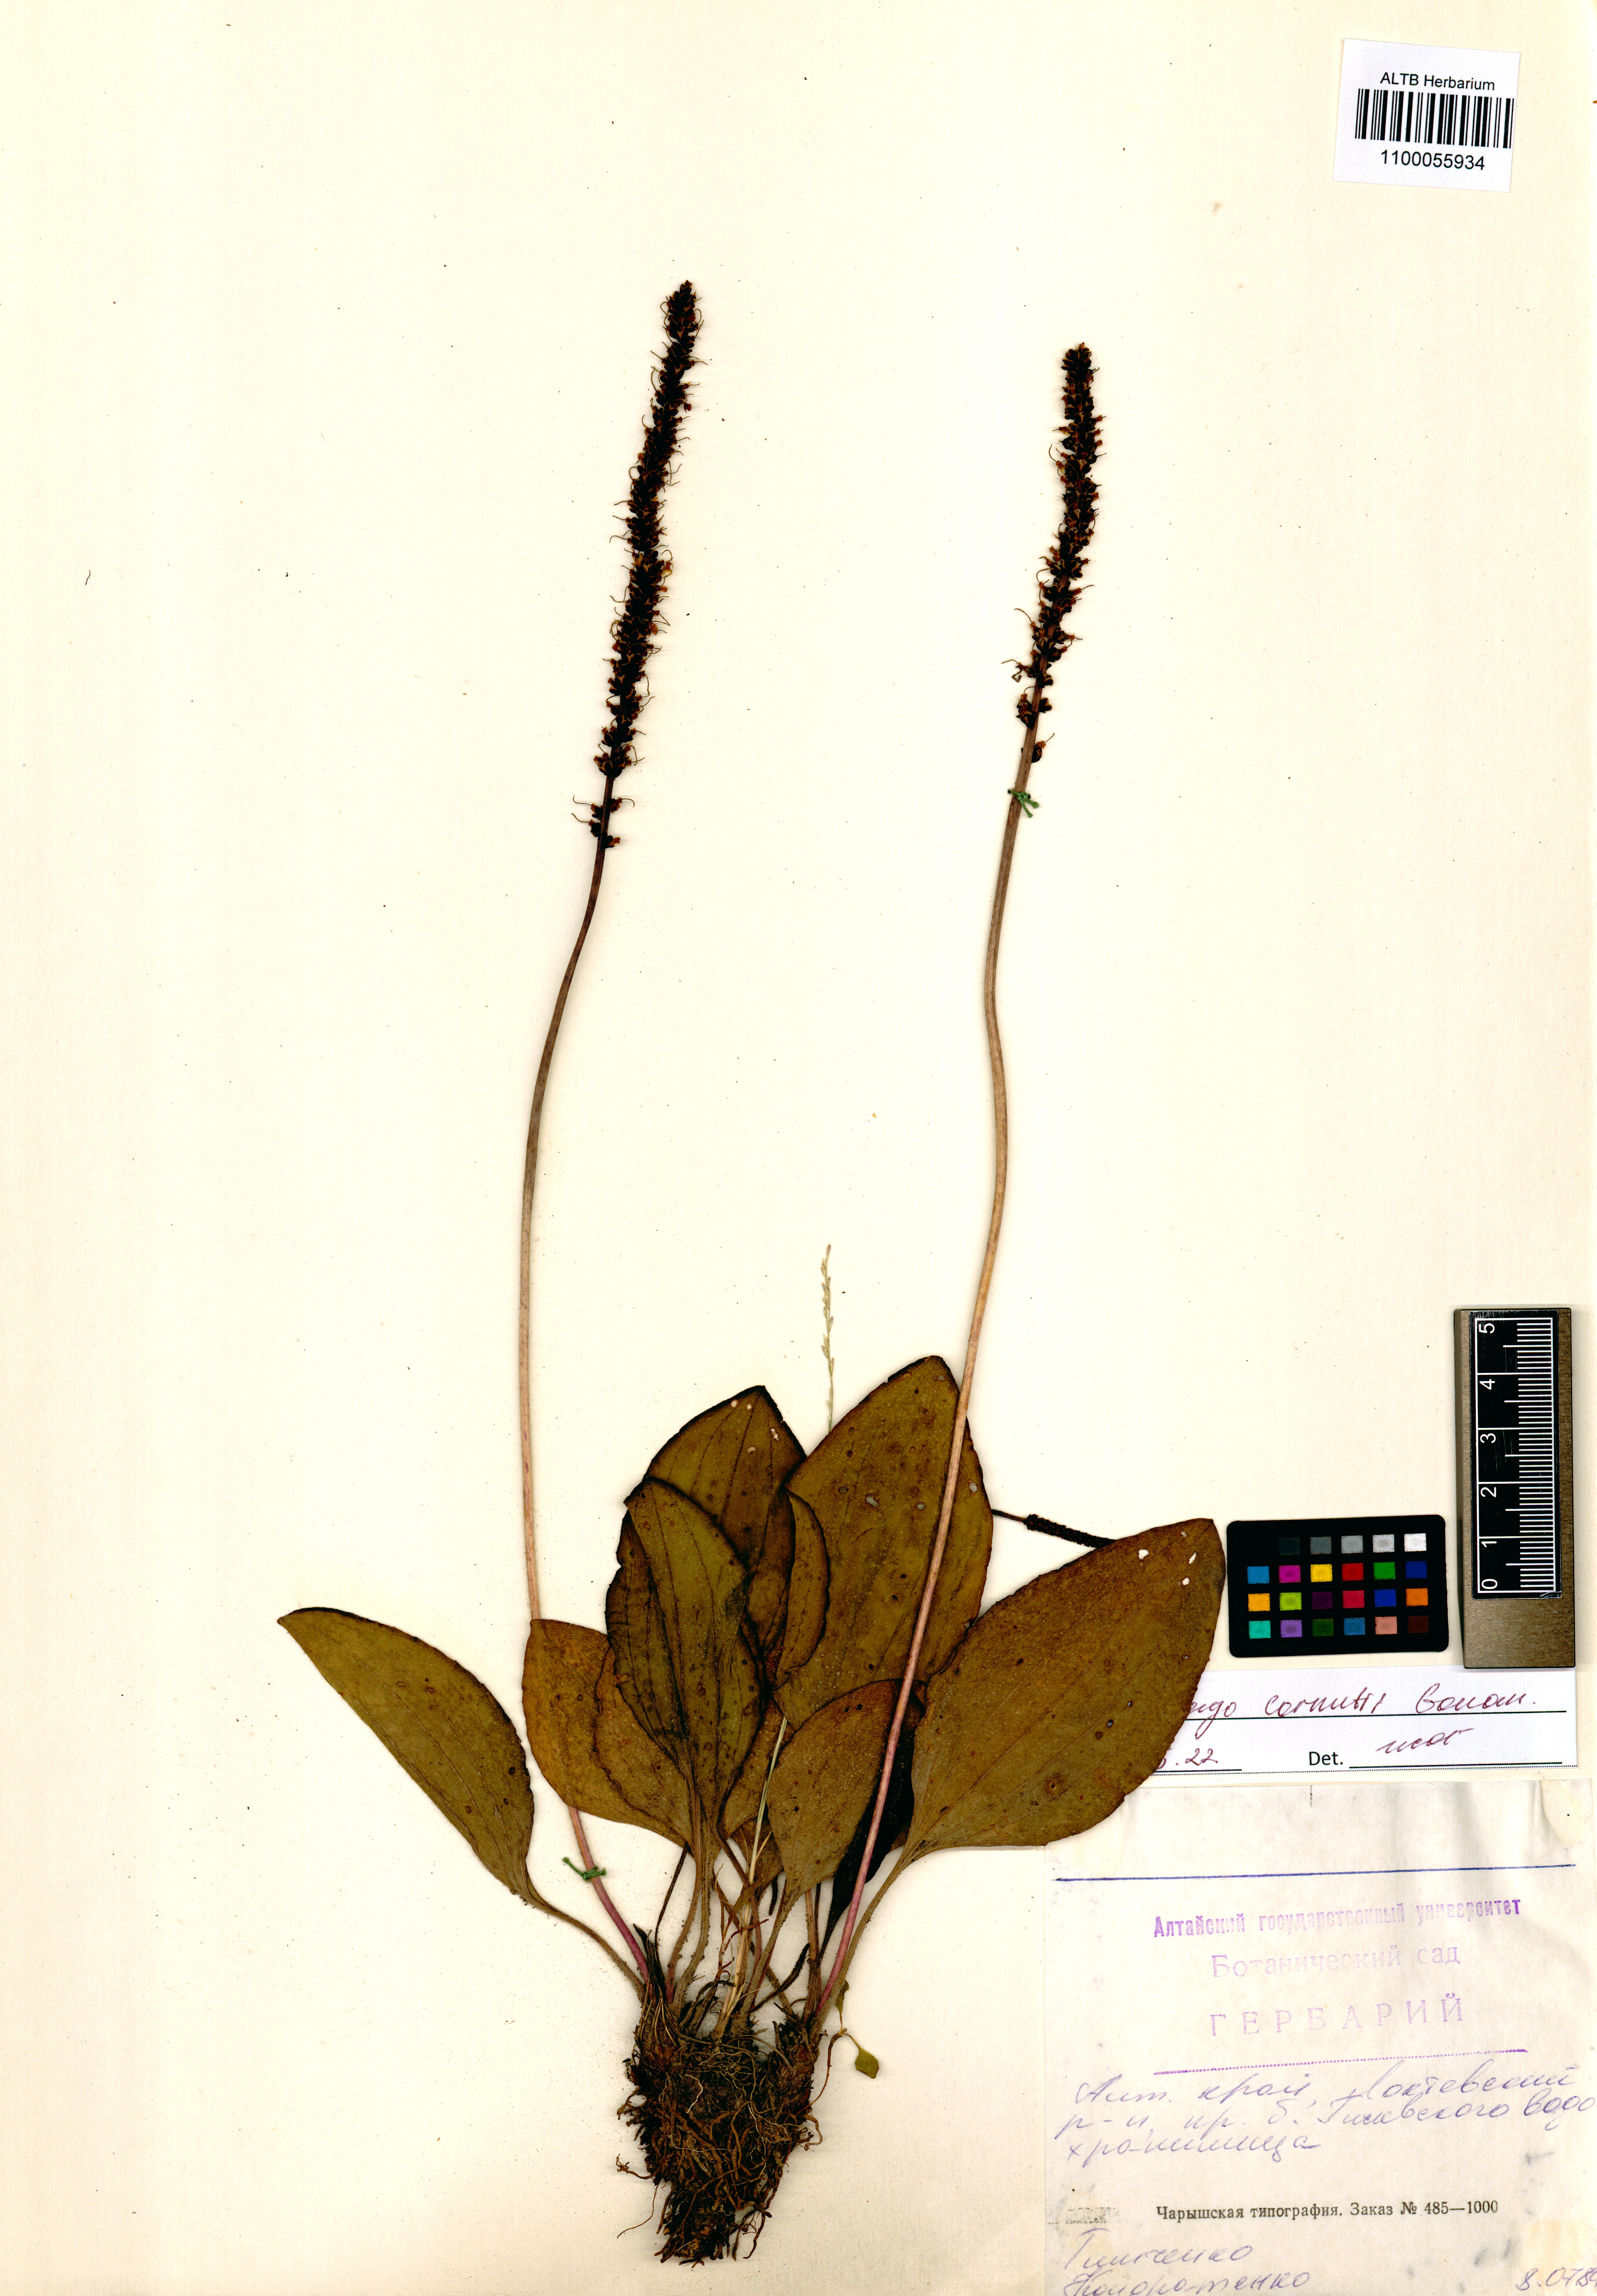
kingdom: Plantae
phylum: Tracheophyta
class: Magnoliopsida
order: Lamiales
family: Plantaginaceae
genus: Plantago
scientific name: Plantago cornuti
